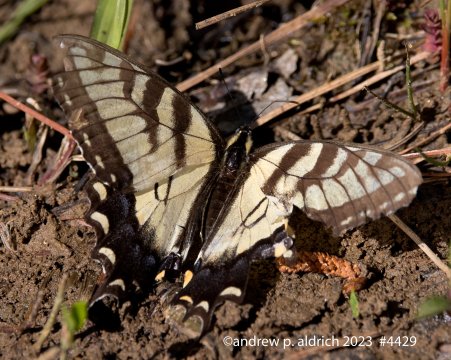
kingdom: Animalia
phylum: Arthropoda
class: Insecta
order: Lepidoptera
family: Papilionidae
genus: Pterourus
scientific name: Pterourus glaucus
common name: Eastern Tiger Swallowtail
